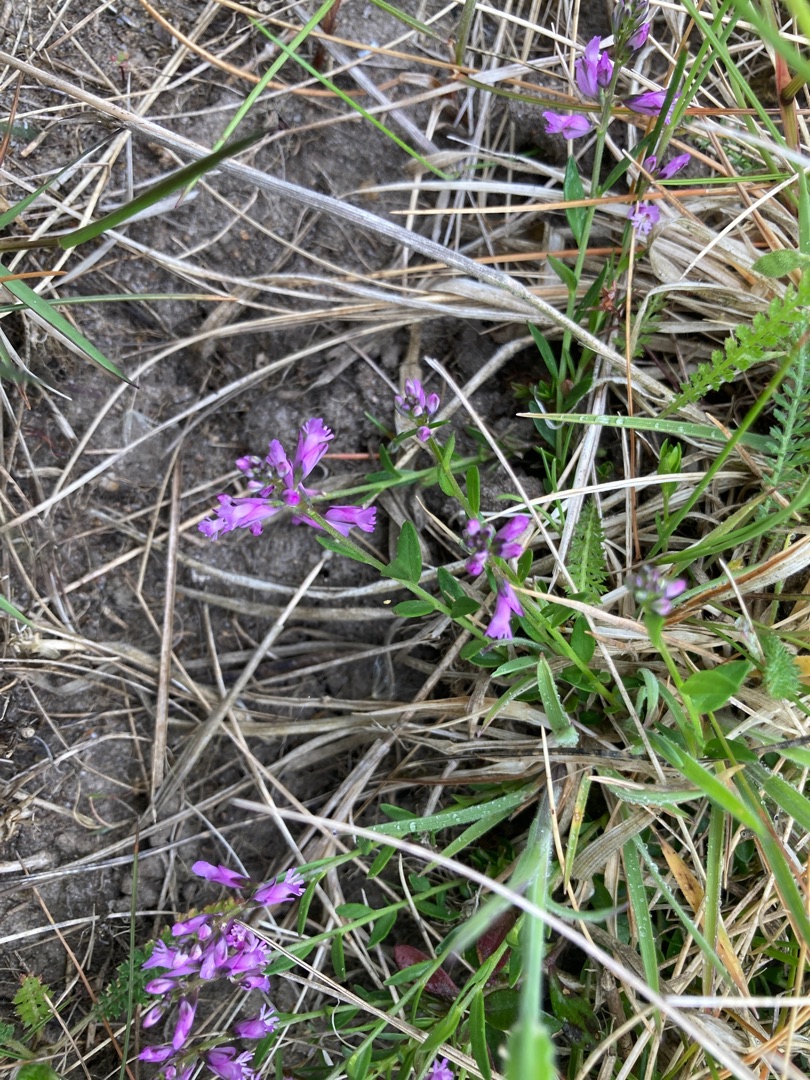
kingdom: Plantae
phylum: Tracheophyta
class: Magnoliopsida
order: Fabales
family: Polygalaceae
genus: Polygala
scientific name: Polygala vulgaris
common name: Almindelig mælkeurt
